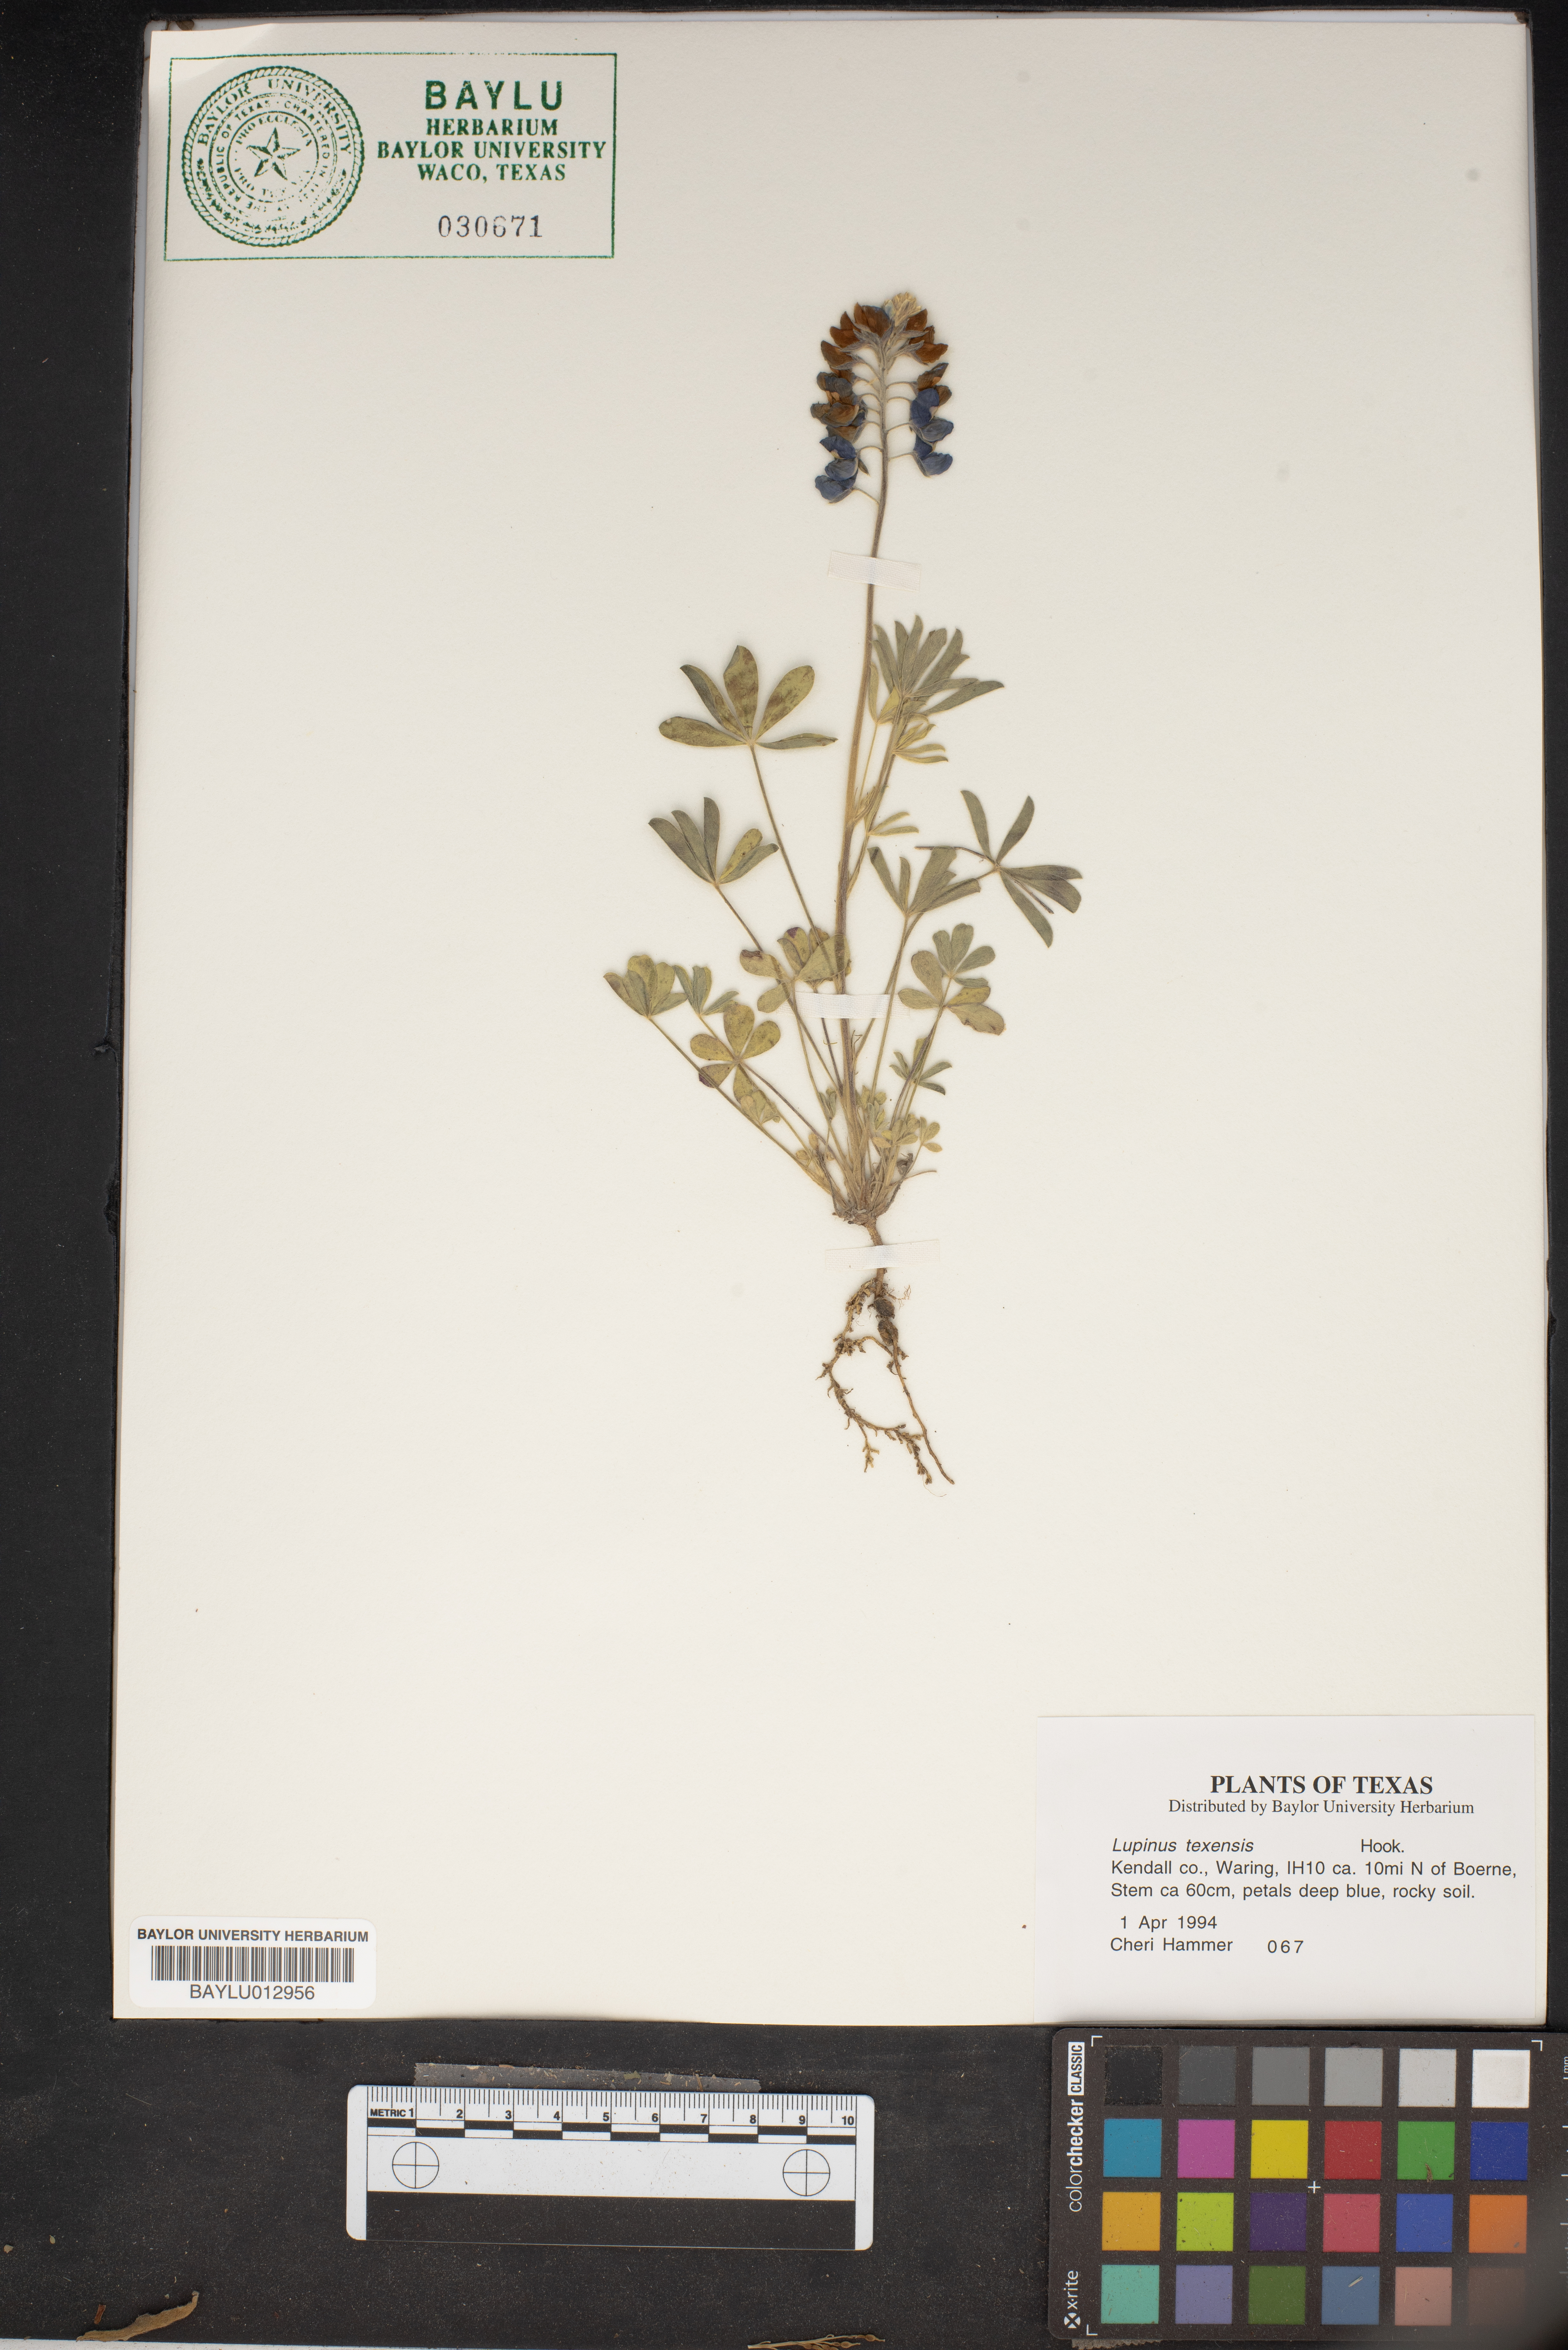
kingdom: Plantae
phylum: Tracheophyta
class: Magnoliopsida
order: Fabales
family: Fabaceae
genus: Lupinus
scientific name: Lupinus texensis
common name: Texas bluebonnet
